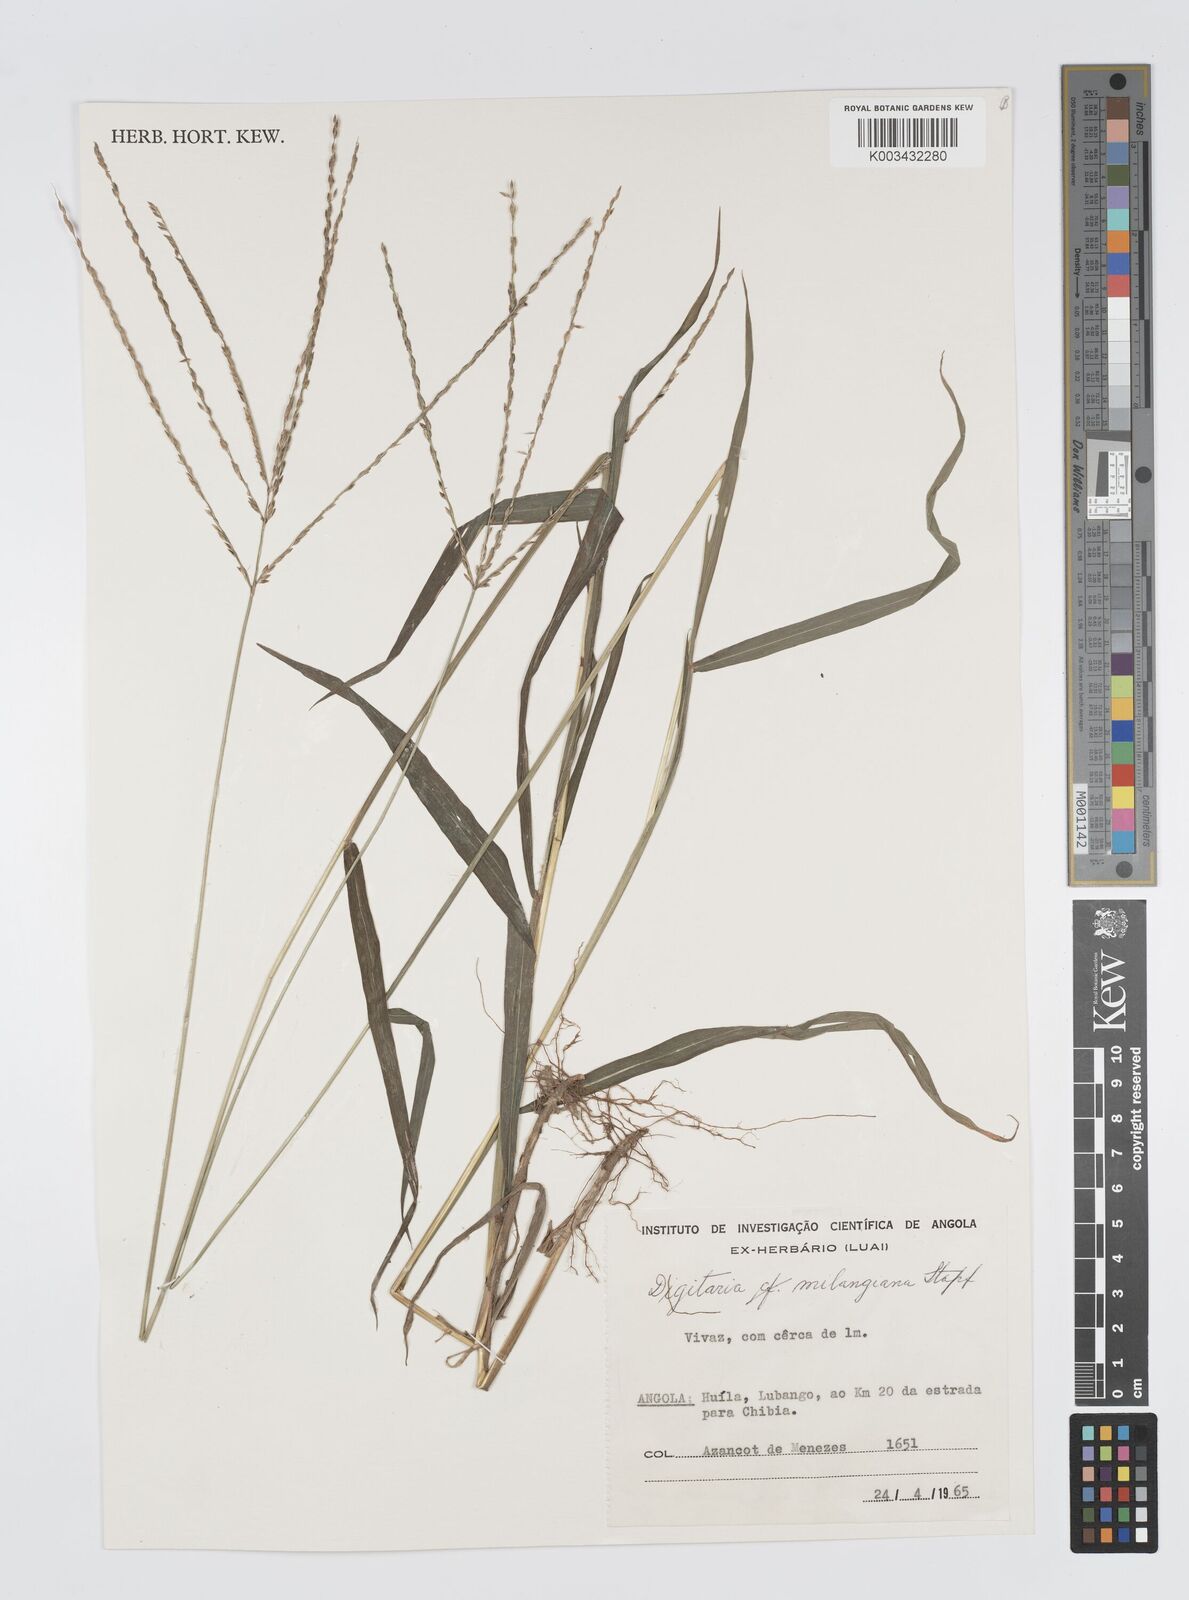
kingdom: Plantae
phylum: Tracheophyta
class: Liliopsida
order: Poales
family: Poaceae
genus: Digitaria
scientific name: Digitaria milanjiana
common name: Madagascar crabgrass
